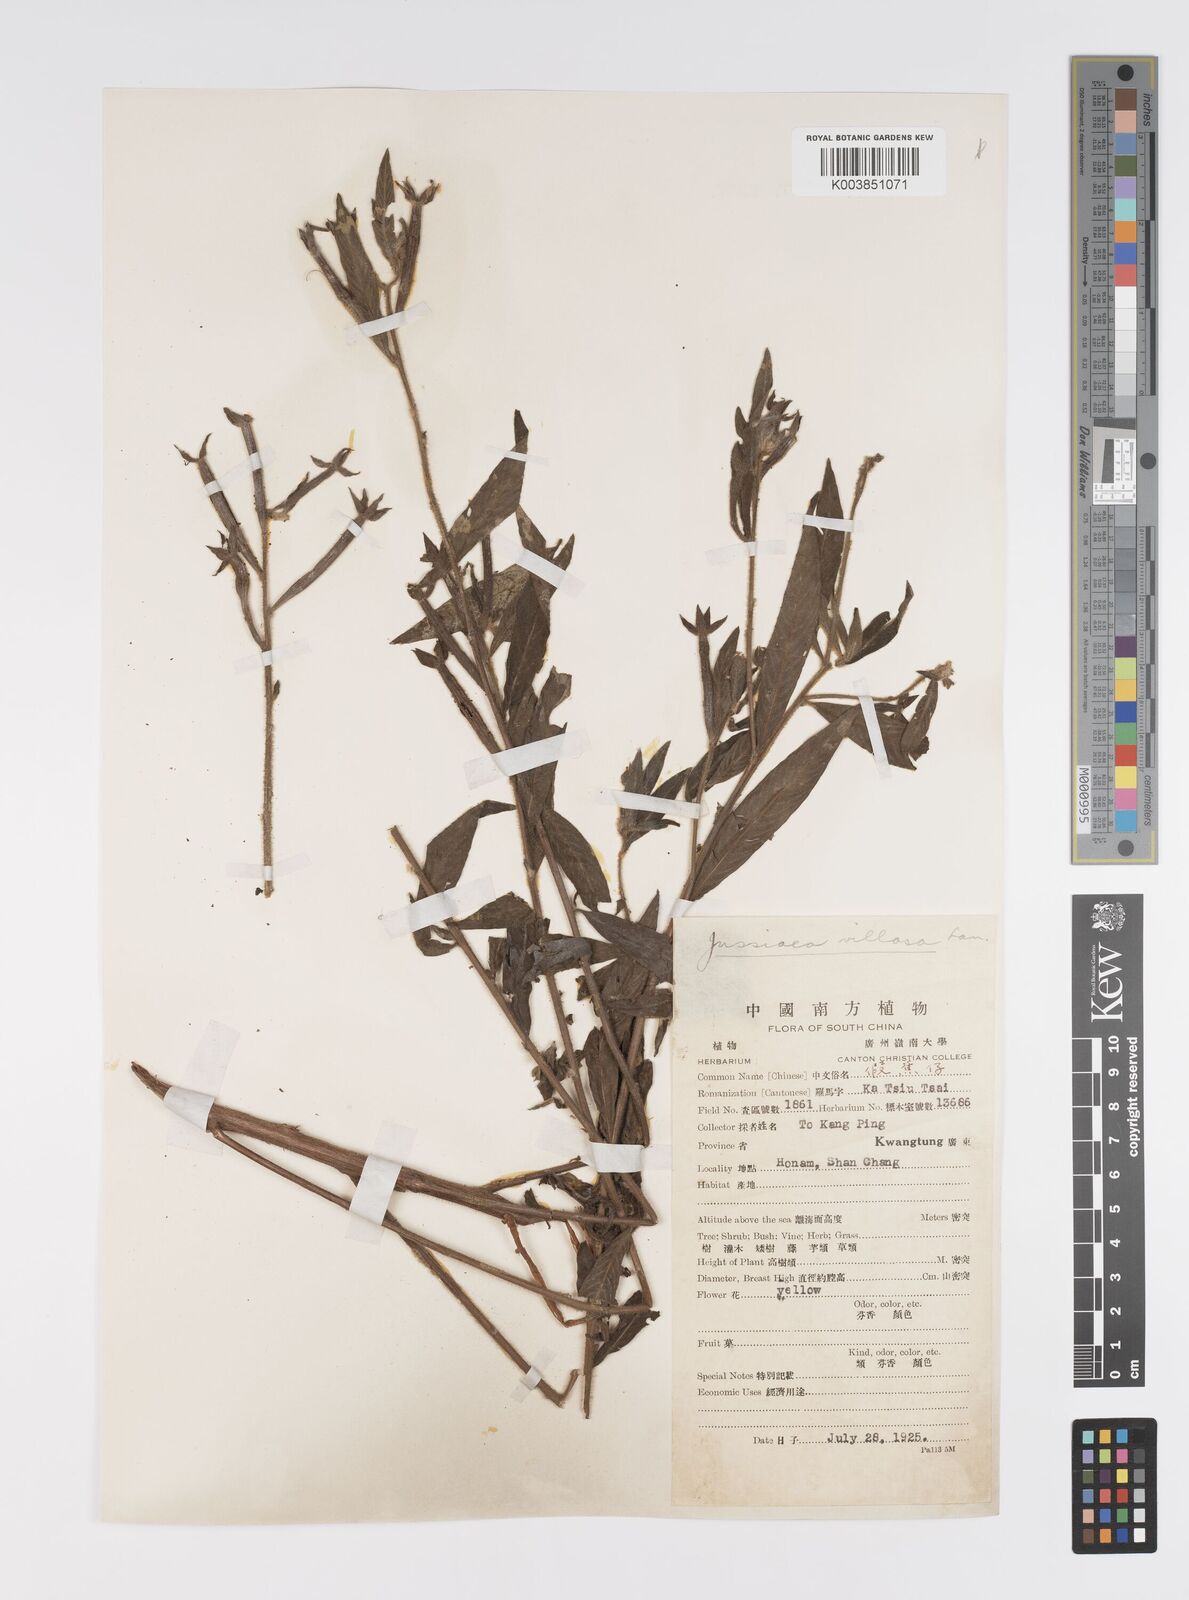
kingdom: Plantae
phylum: Tracheophyta
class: Magnoliopsida
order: Myrtales
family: Onagraceae
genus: Ludwigia
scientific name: Ludwigia octovalvis
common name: Water-primrose
